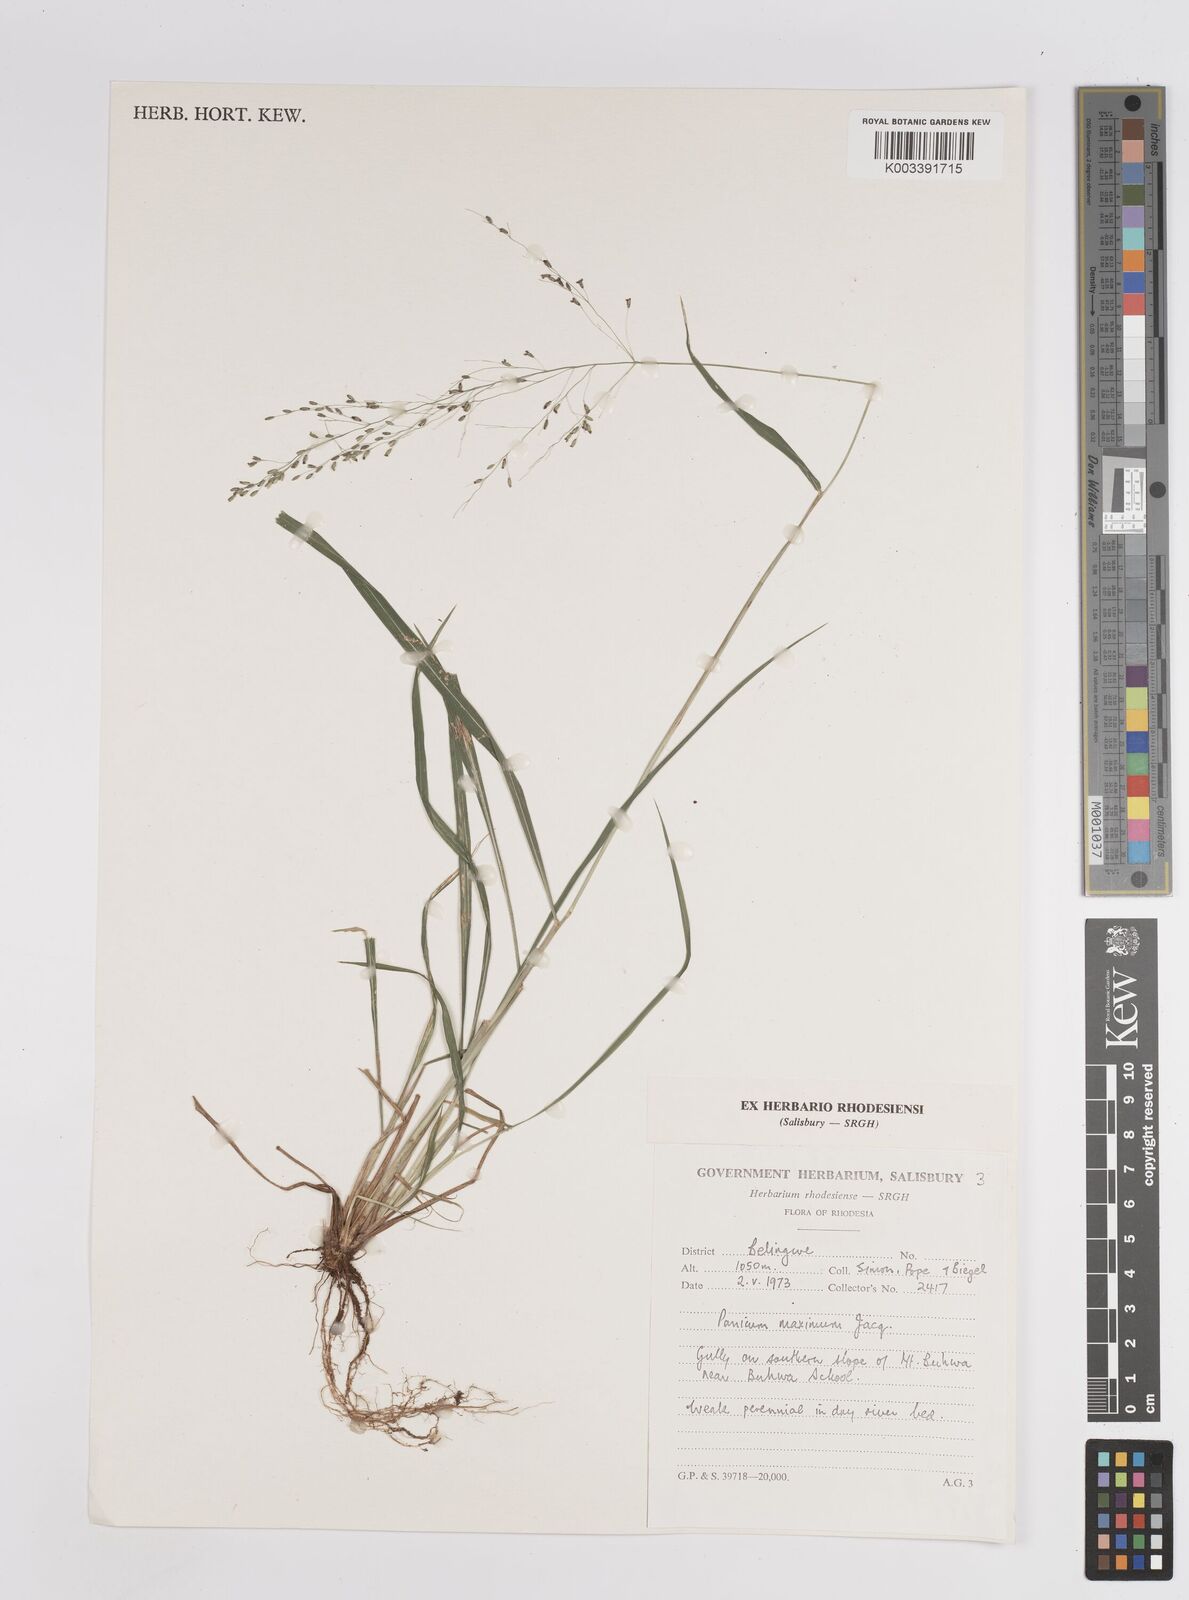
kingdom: Plantae
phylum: Tracheophyta
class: Liliopsida
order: Poales
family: Poaceae
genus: Megathyrsus
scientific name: Megathyrsus maximus
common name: Guineagrass
